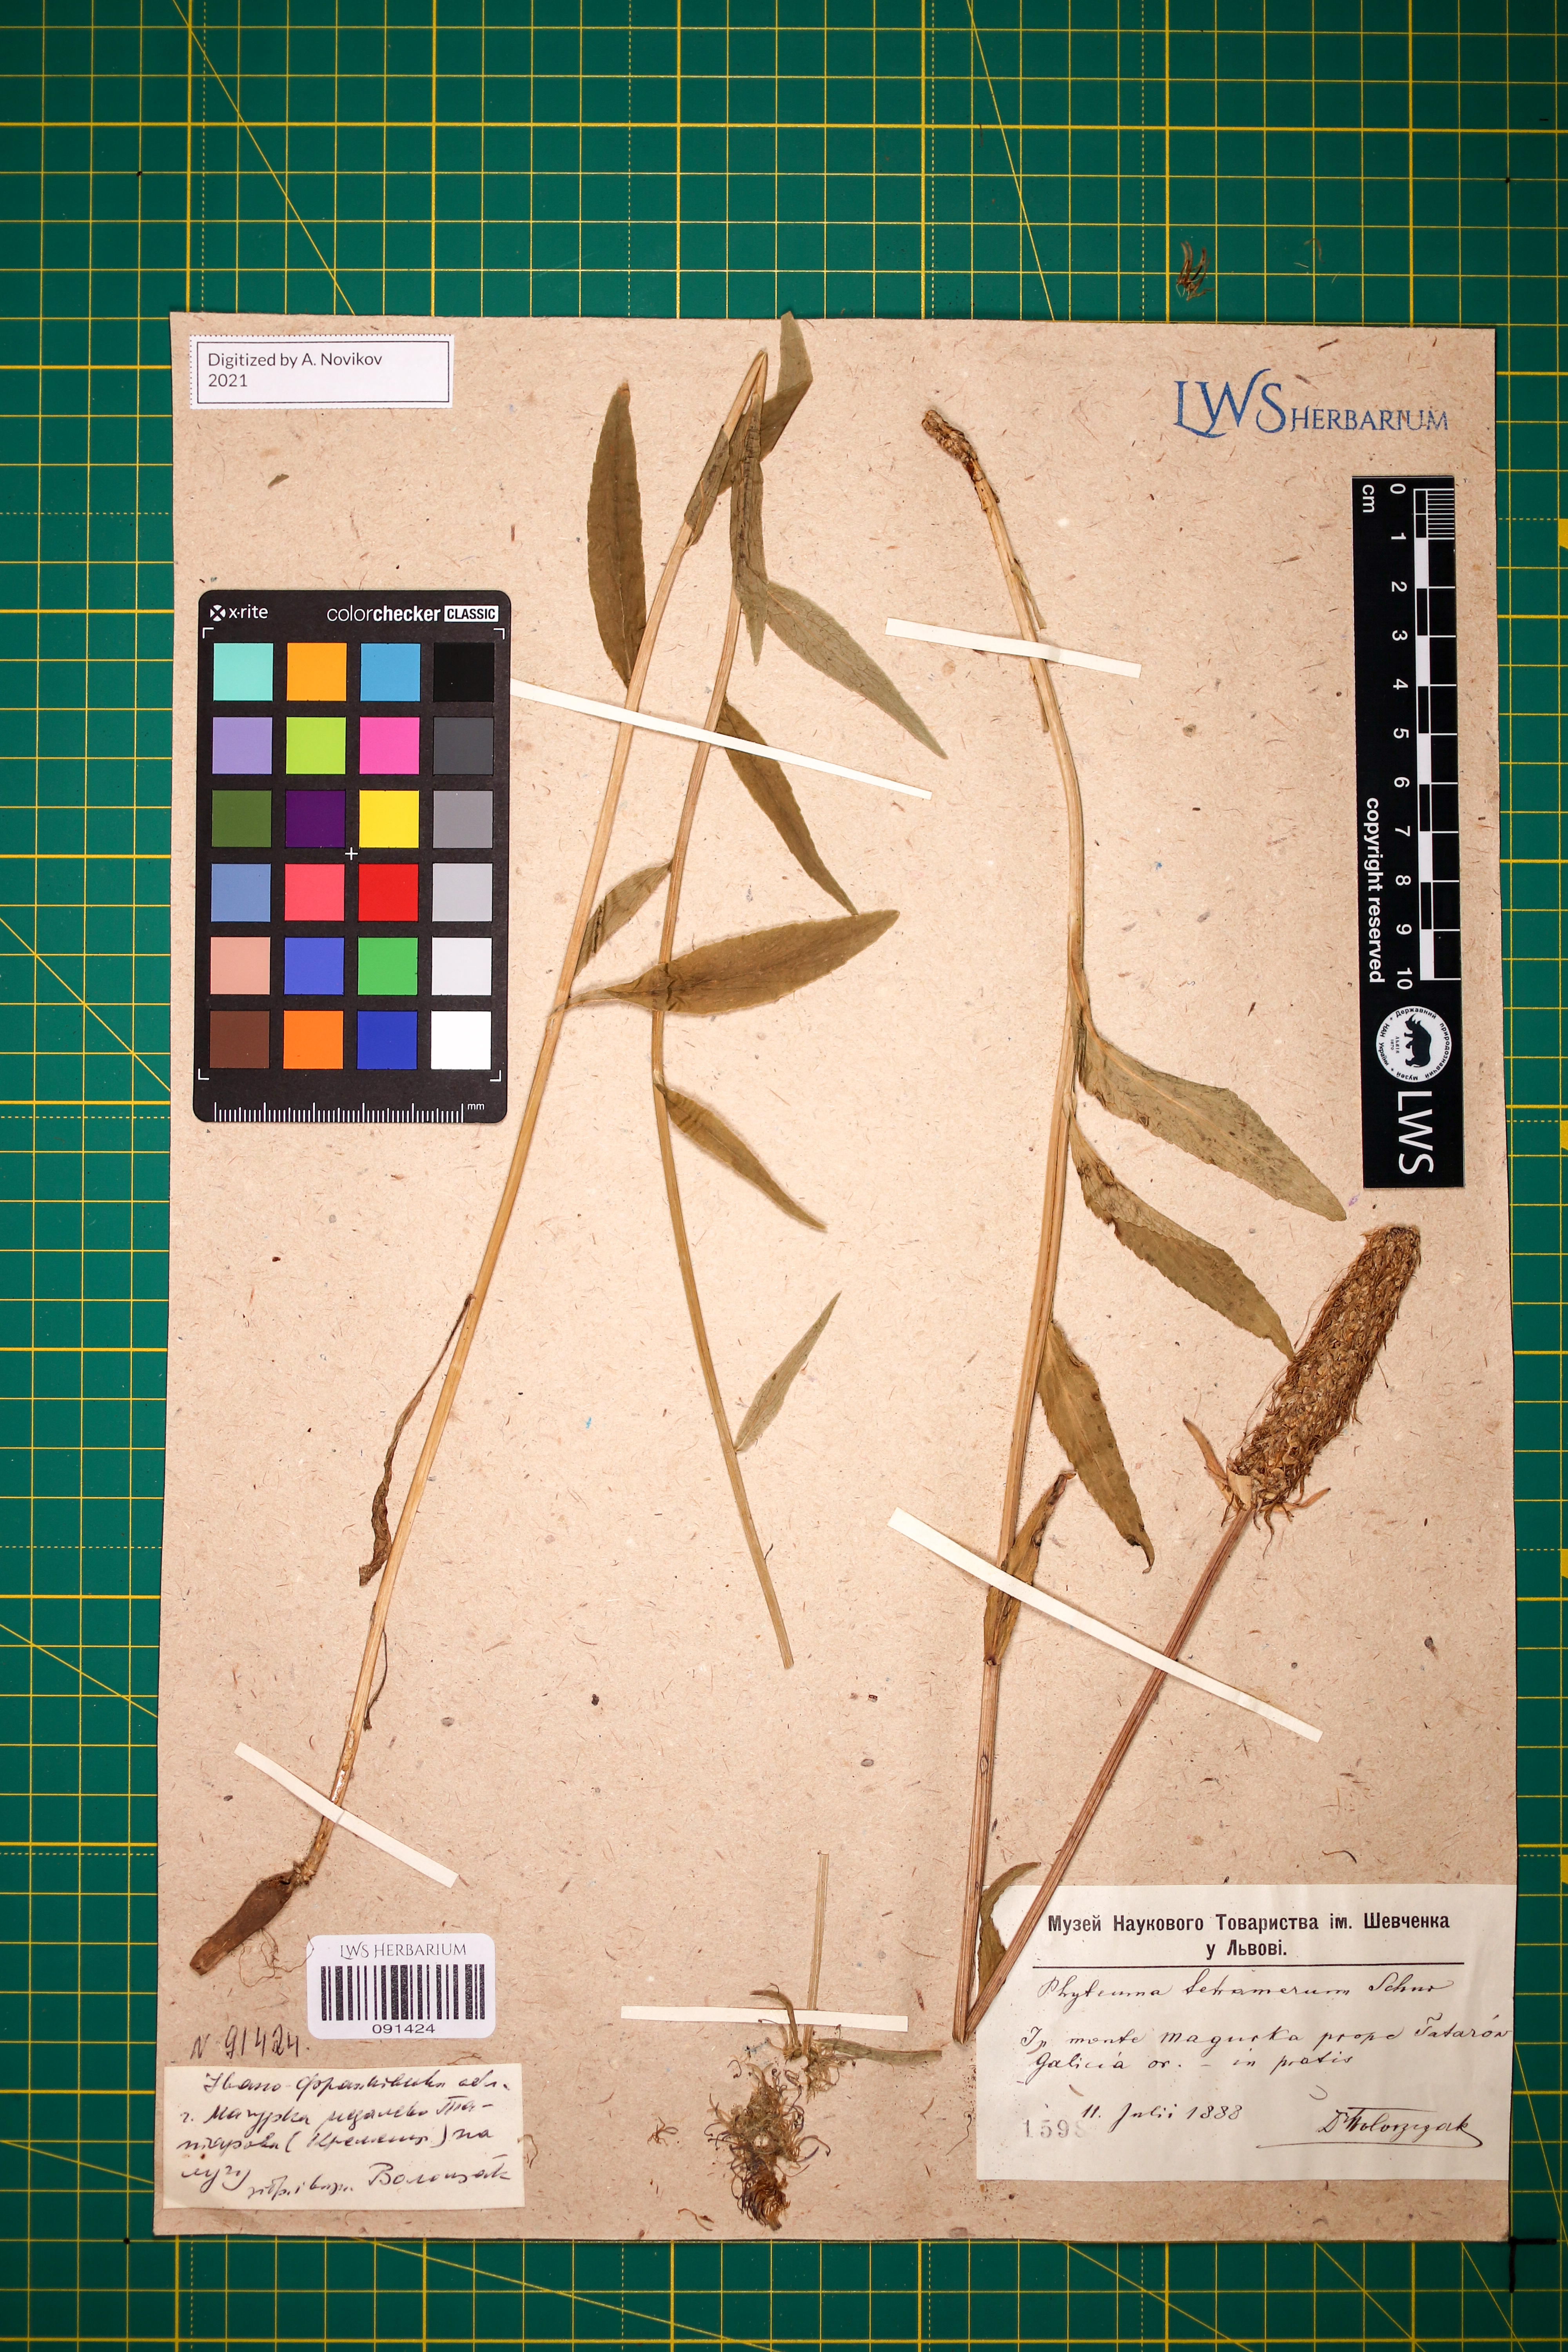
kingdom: Plantae
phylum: Tracheophyta
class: Magnoliopsida
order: Asterales
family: Campanulaceae
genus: Phyteuma
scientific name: Phyteuma tetramerum
